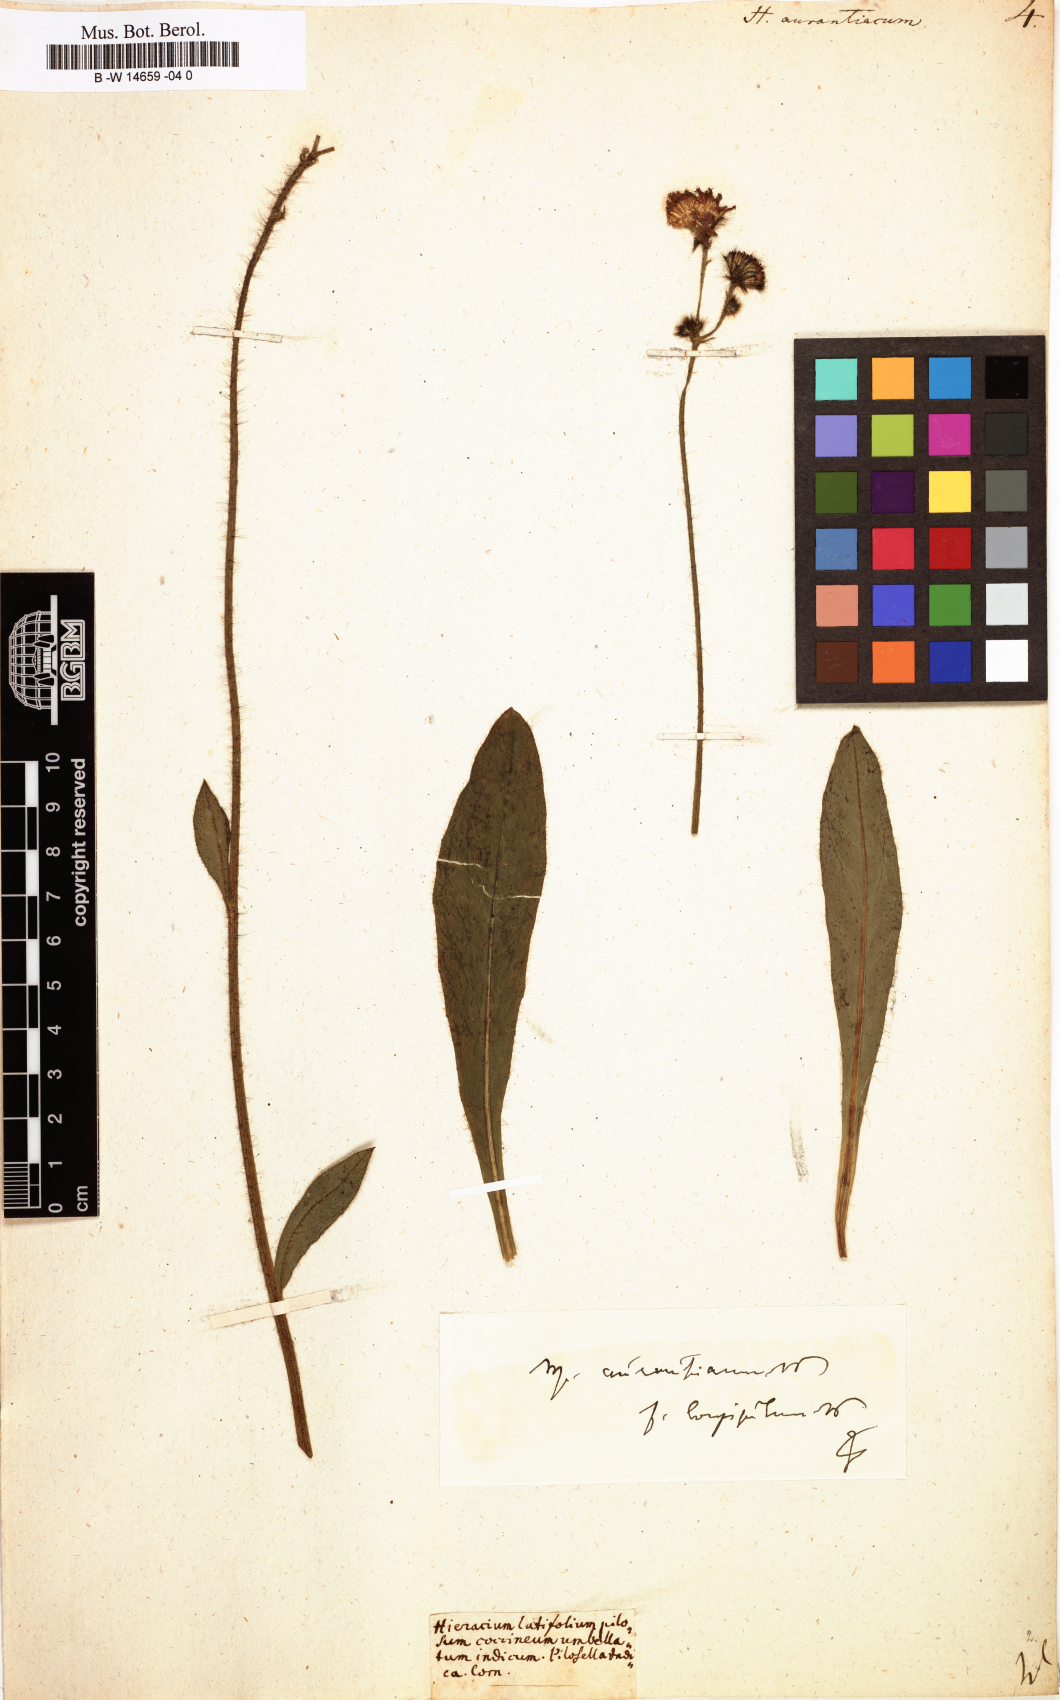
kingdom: Plantae
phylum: Tracheophyta
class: Magnoliopsida
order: Asterales
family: Asteraceae
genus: Pilosella
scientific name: Pilosella aurantiaca
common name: Fox-and-cubs
